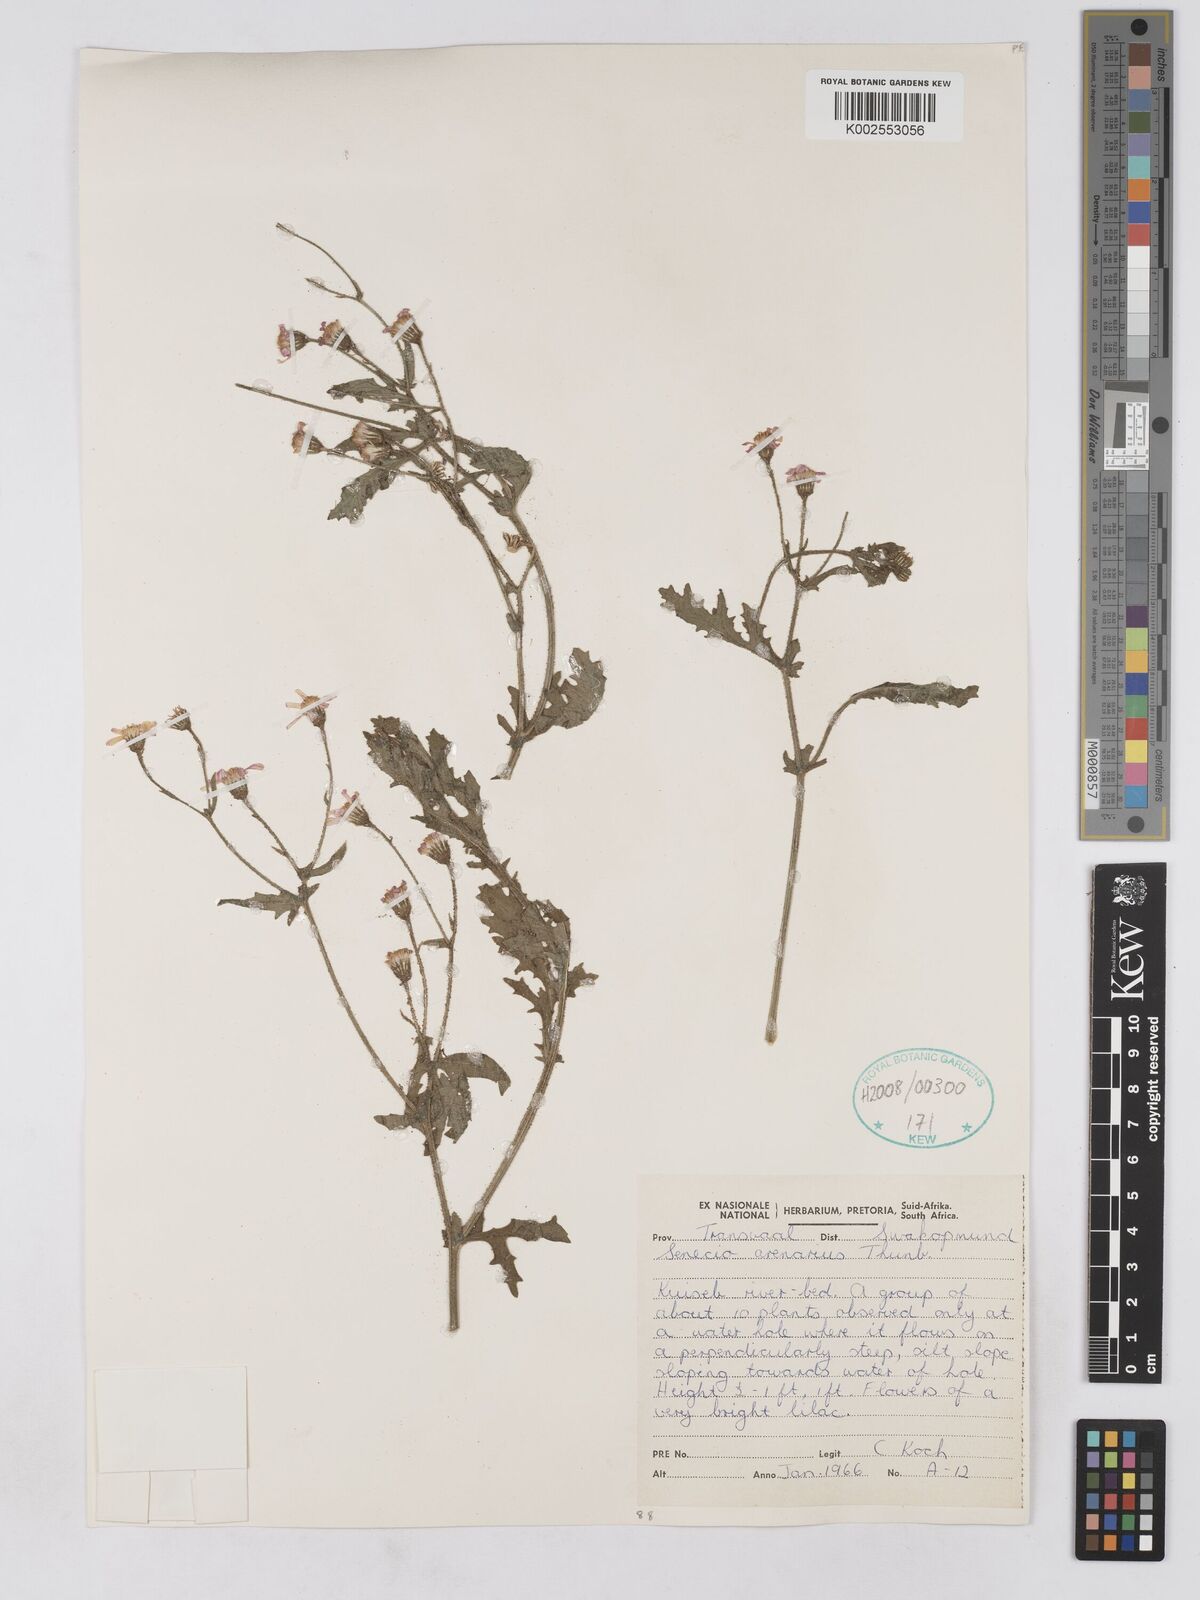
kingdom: Plantae
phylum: Tracheophyta
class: Magnoliopsida
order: Asterales
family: Asteraceae
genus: Senecio
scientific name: Senecio arenarius
